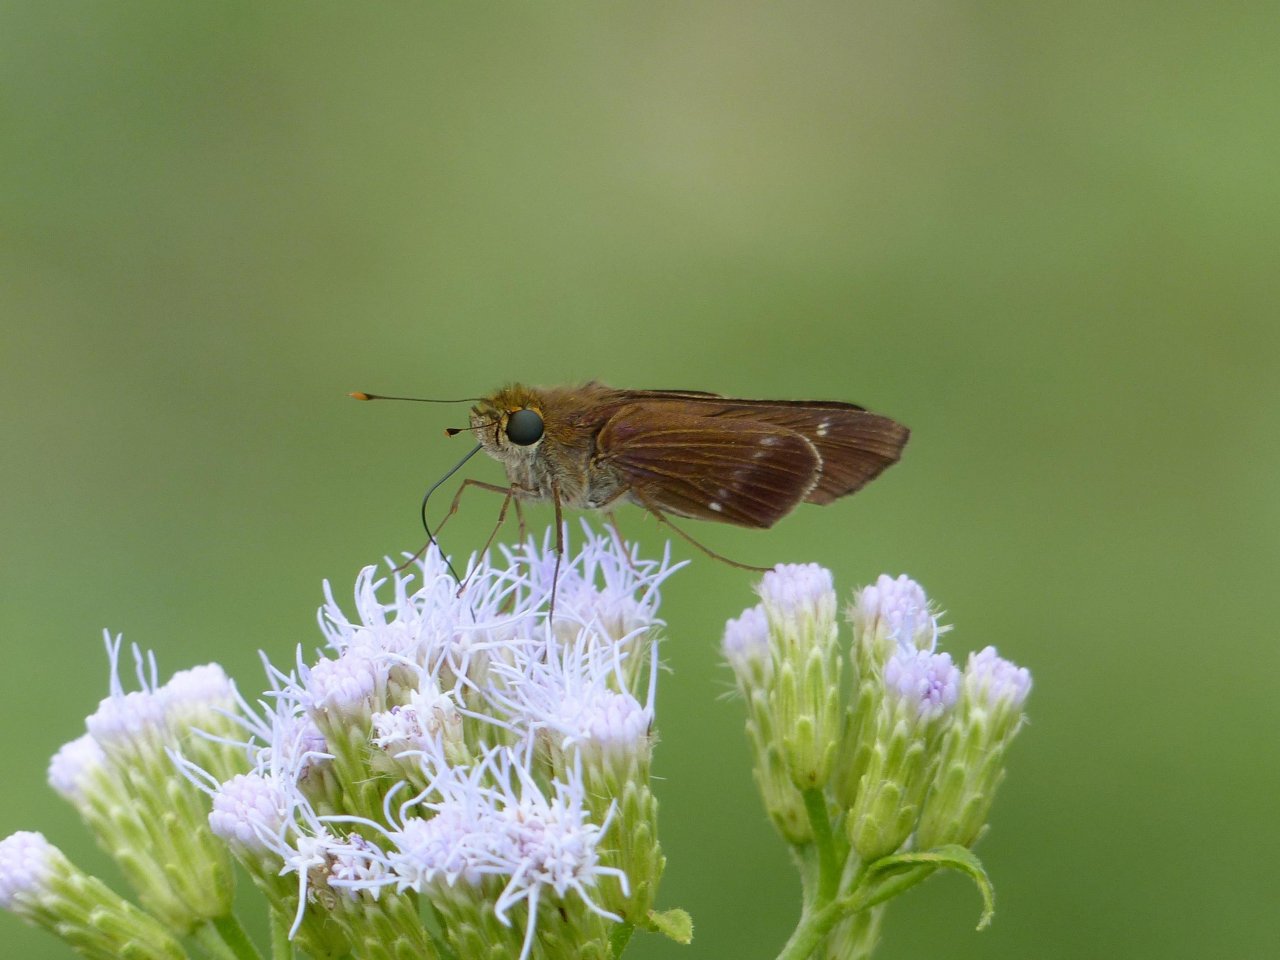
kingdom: Animalia
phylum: Arthropoda
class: Insecta
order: Lepidoptera
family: Hesperiidae
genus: Turesis
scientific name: Turesis lucas
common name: Purple-washed Skipper
